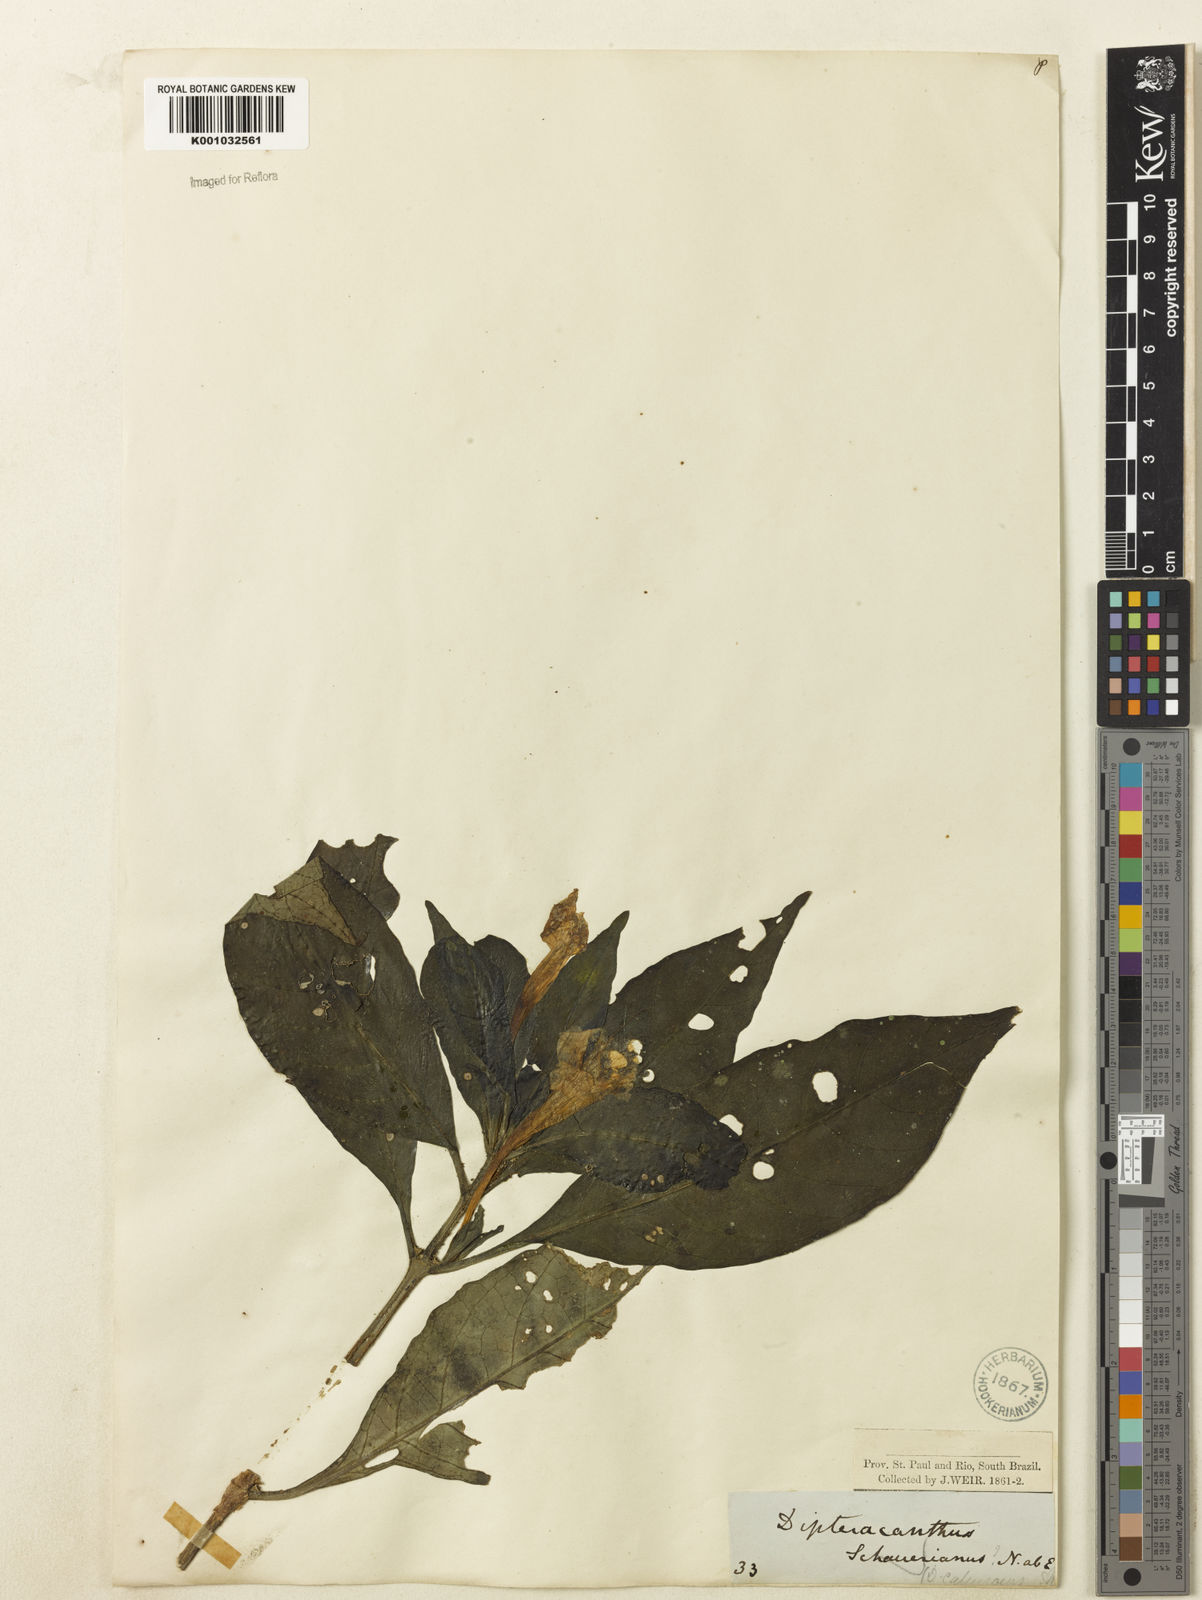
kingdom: Plantae
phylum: Tracheophyta
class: Magnoliopsida
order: Lamiales
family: Acanthaceae
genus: Ruellia
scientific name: Ruellia
